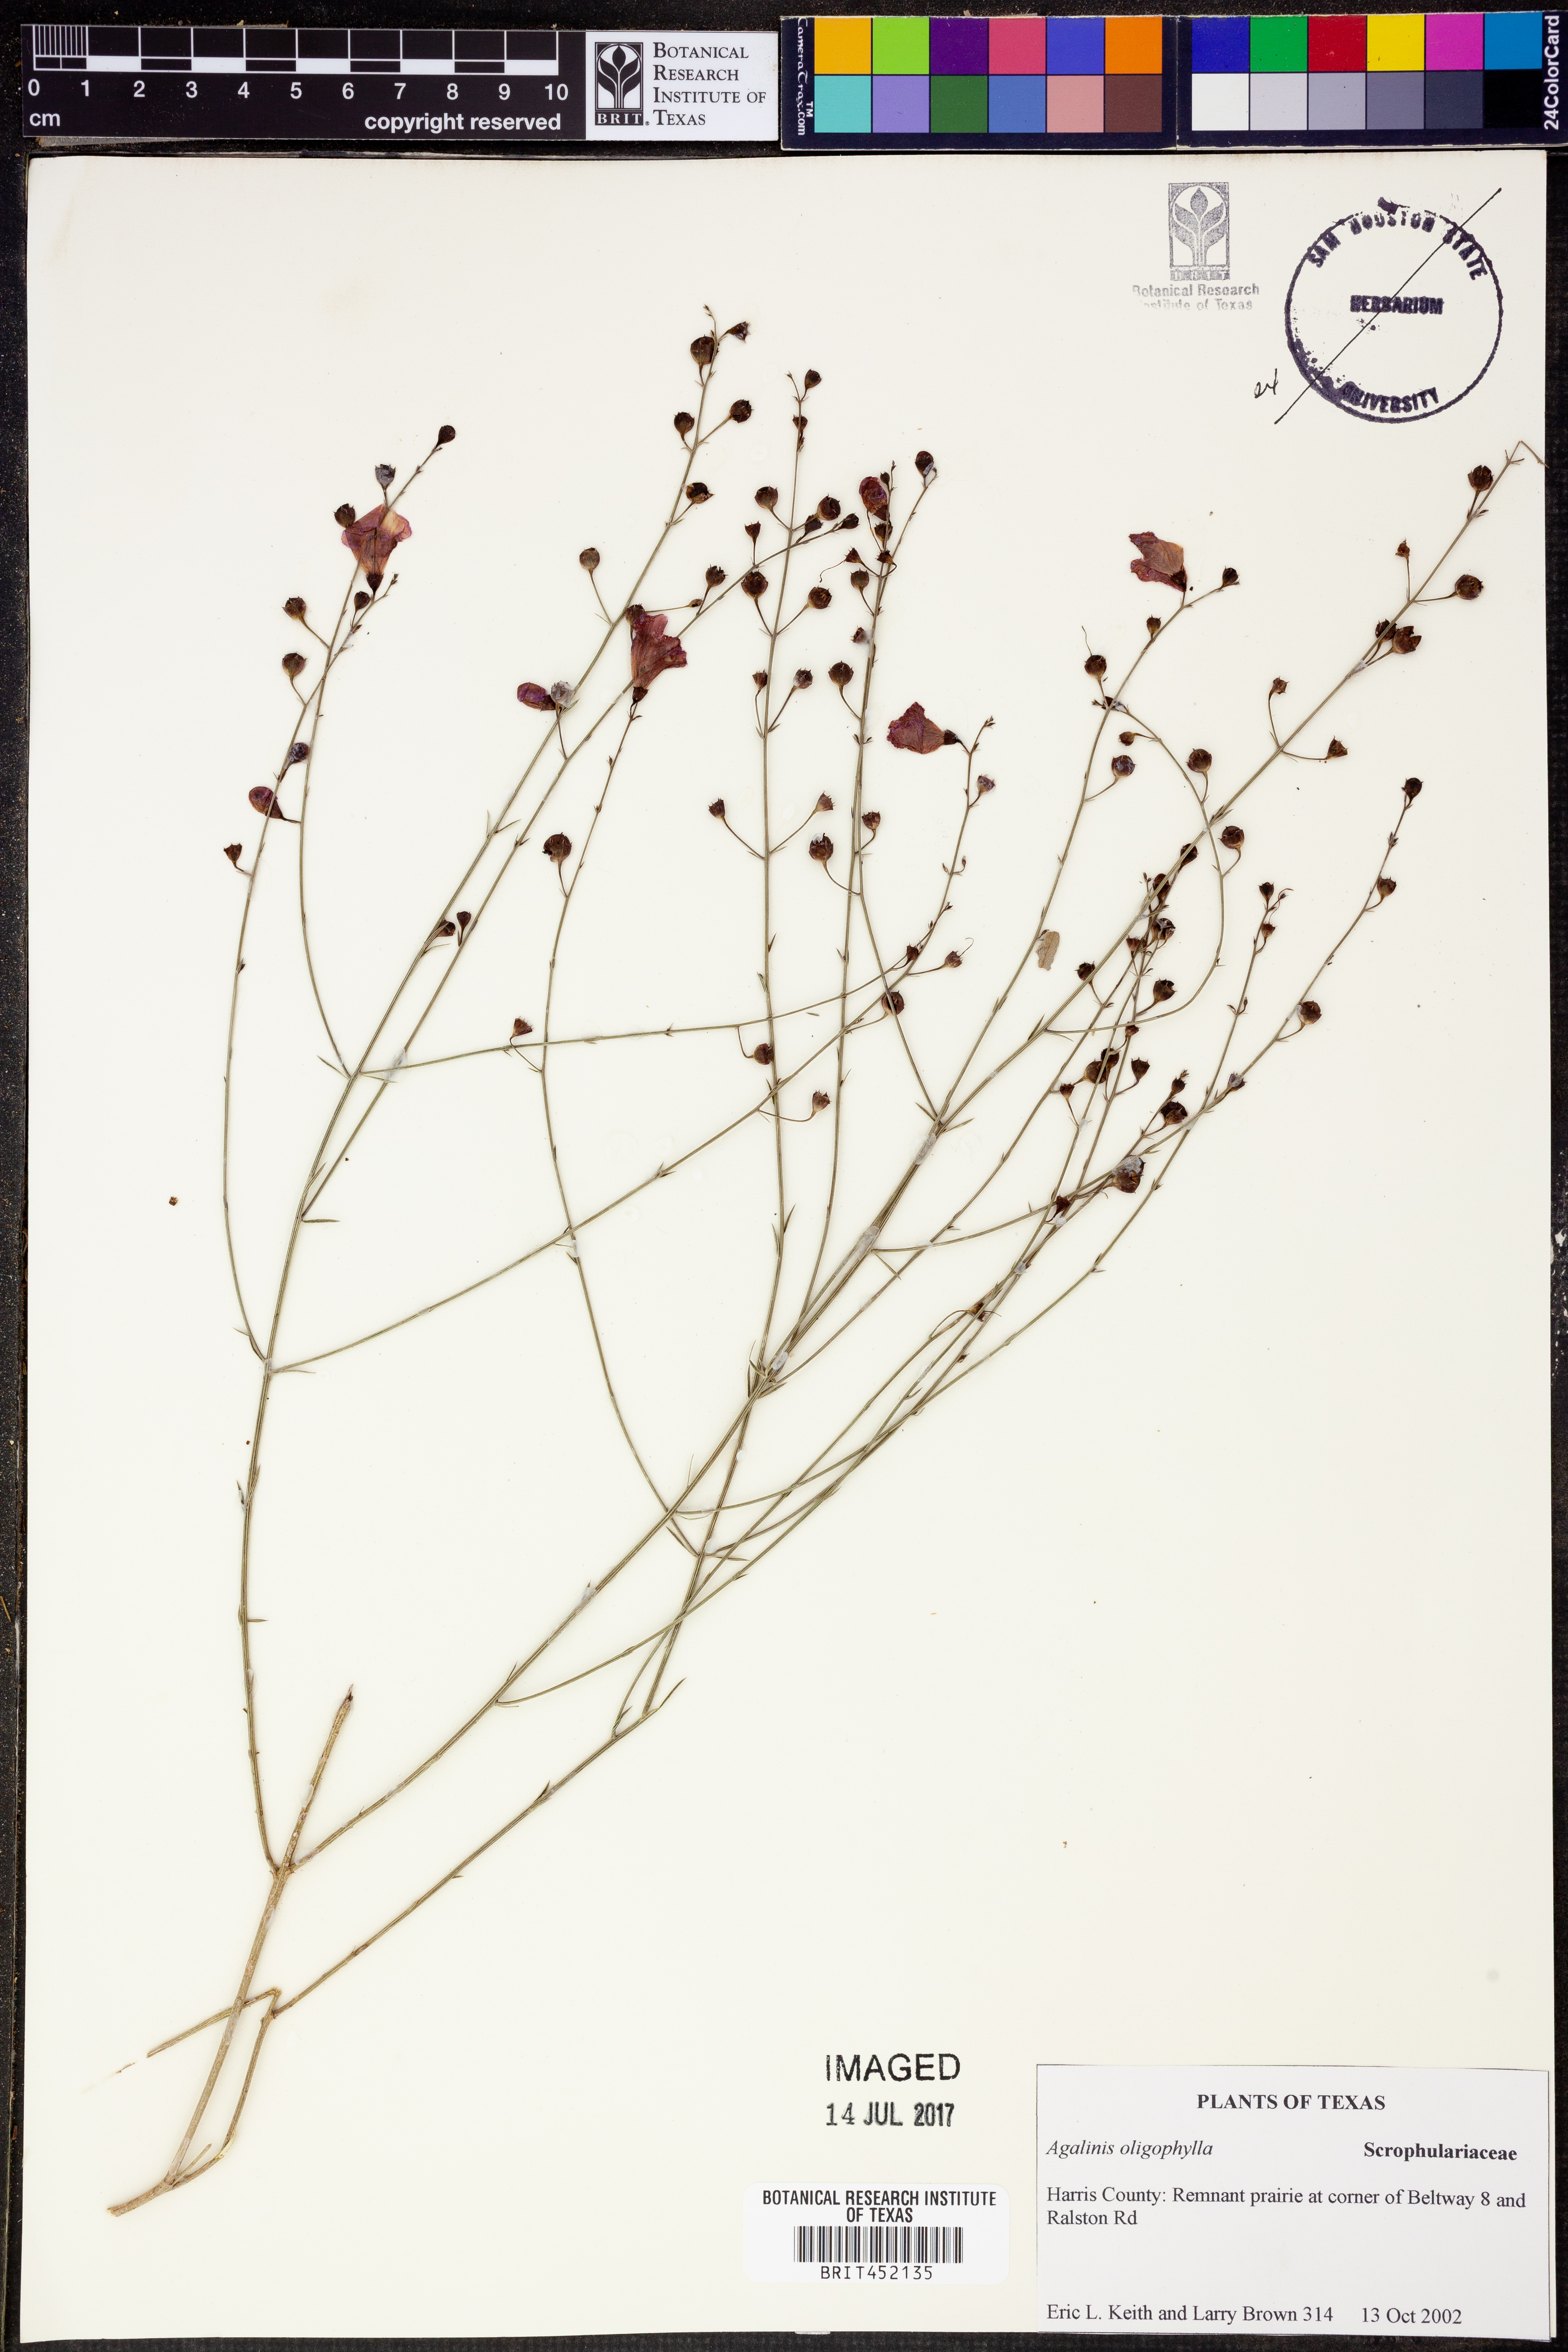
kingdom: Plantae
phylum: Tracheophyta
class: Magnoliopsida
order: Lamiales
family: Orobanchaceae
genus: Agalinis
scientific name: Agalinis oligophylla
